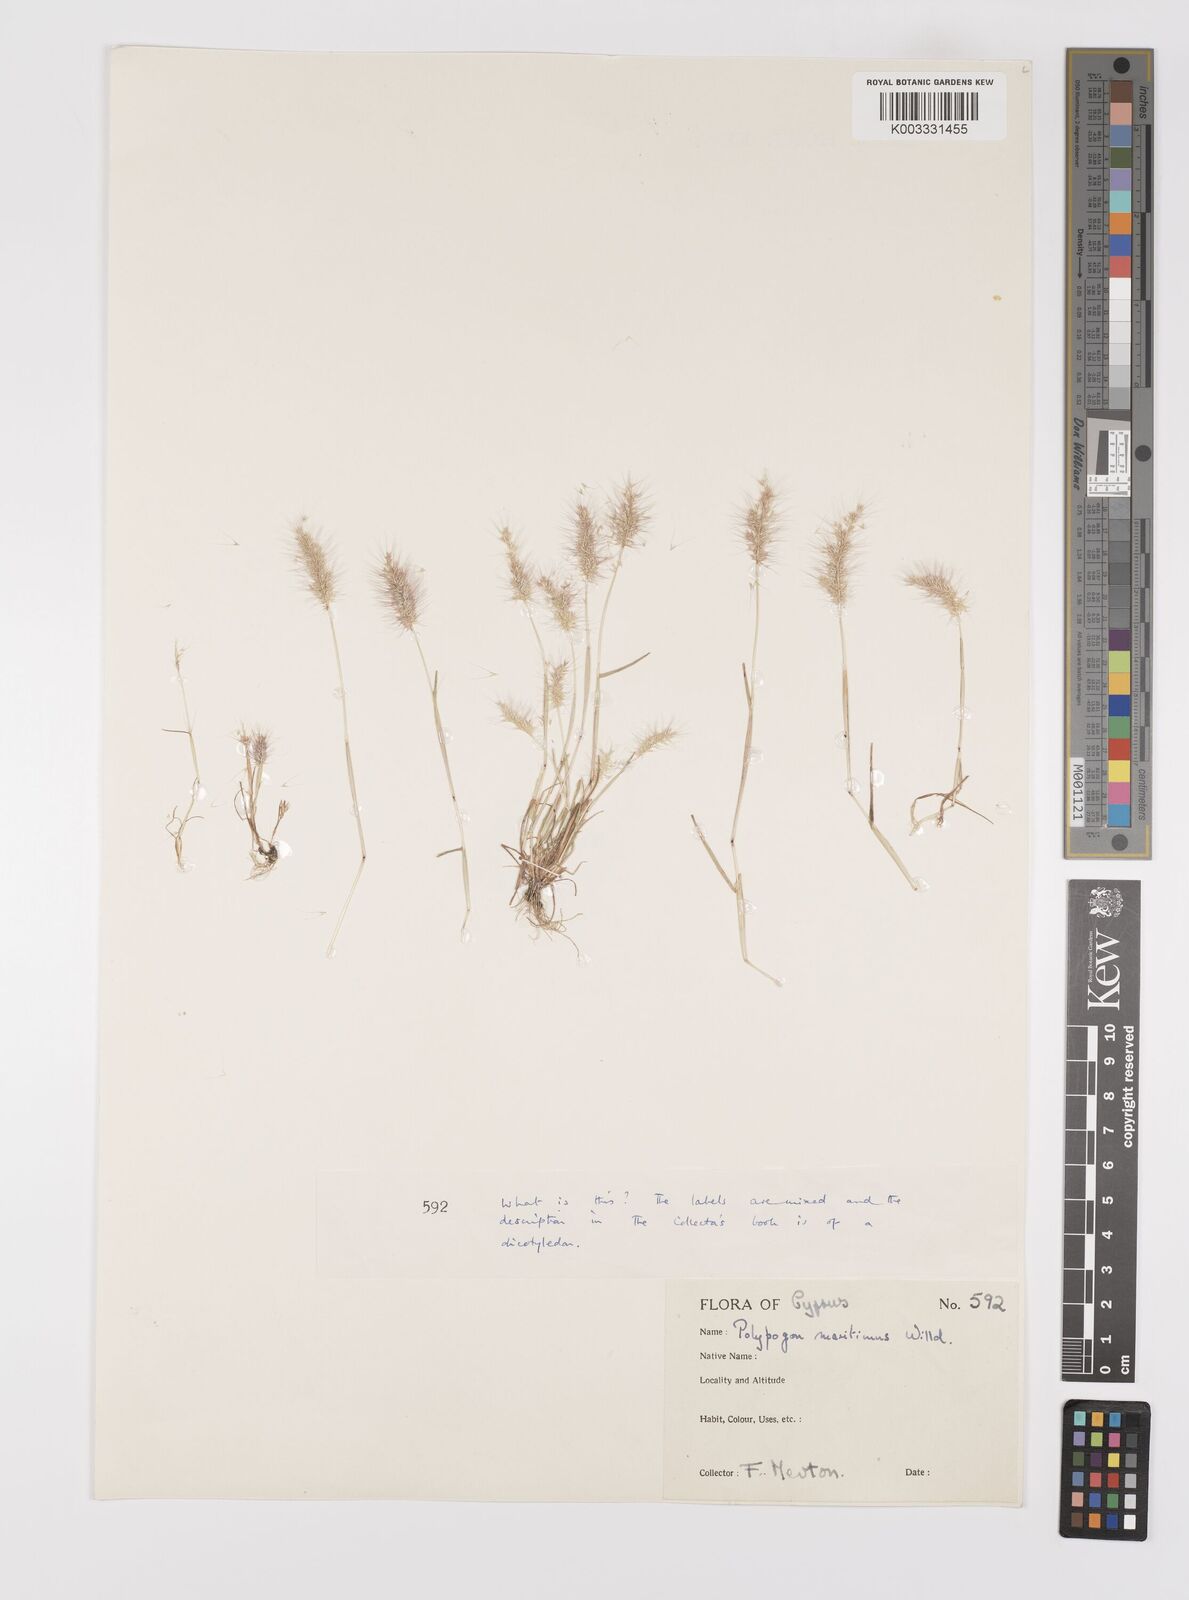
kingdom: Plantae
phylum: Tracheophyta
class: Liliopsida
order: Poales
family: Poaceae
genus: Polypogon
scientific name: Polypogon maritimus
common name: Mediterranean rabbitsfoot grass
